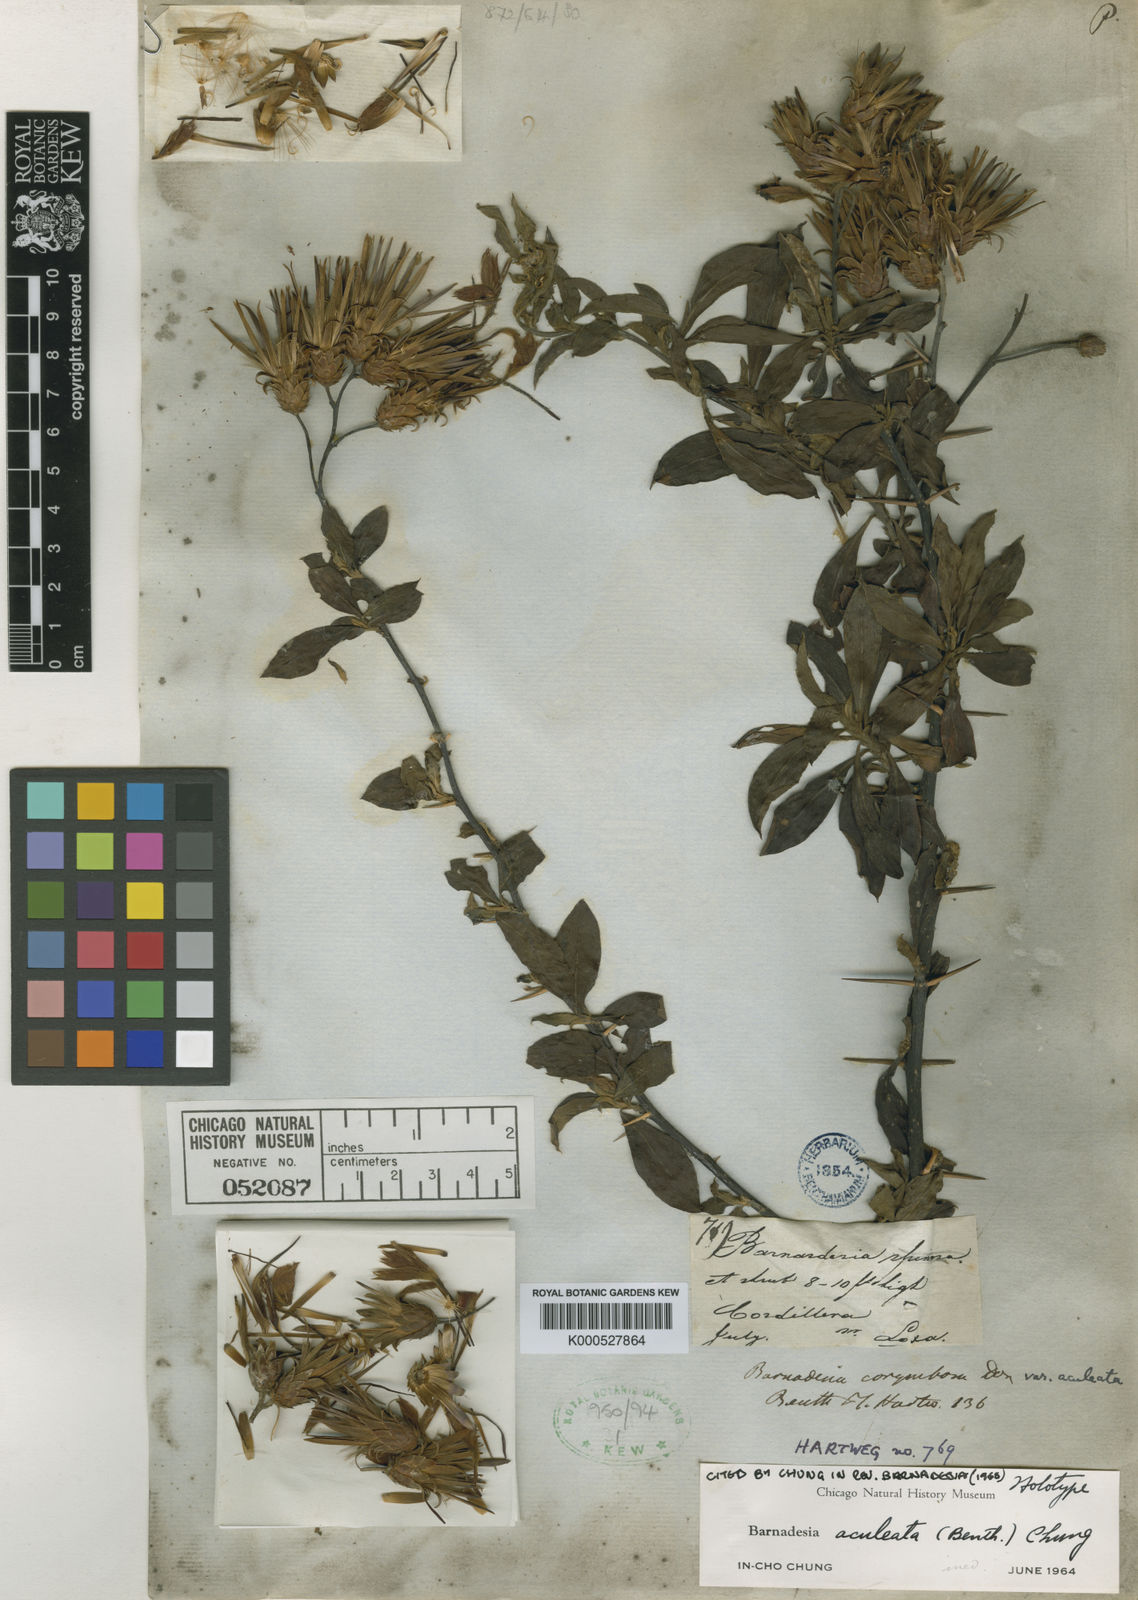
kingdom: Plantae
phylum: Tracheophyta
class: Magnoliopsida
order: Asterales
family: Asteraceae
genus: Barnadesia
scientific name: Barnadesia aculeata
